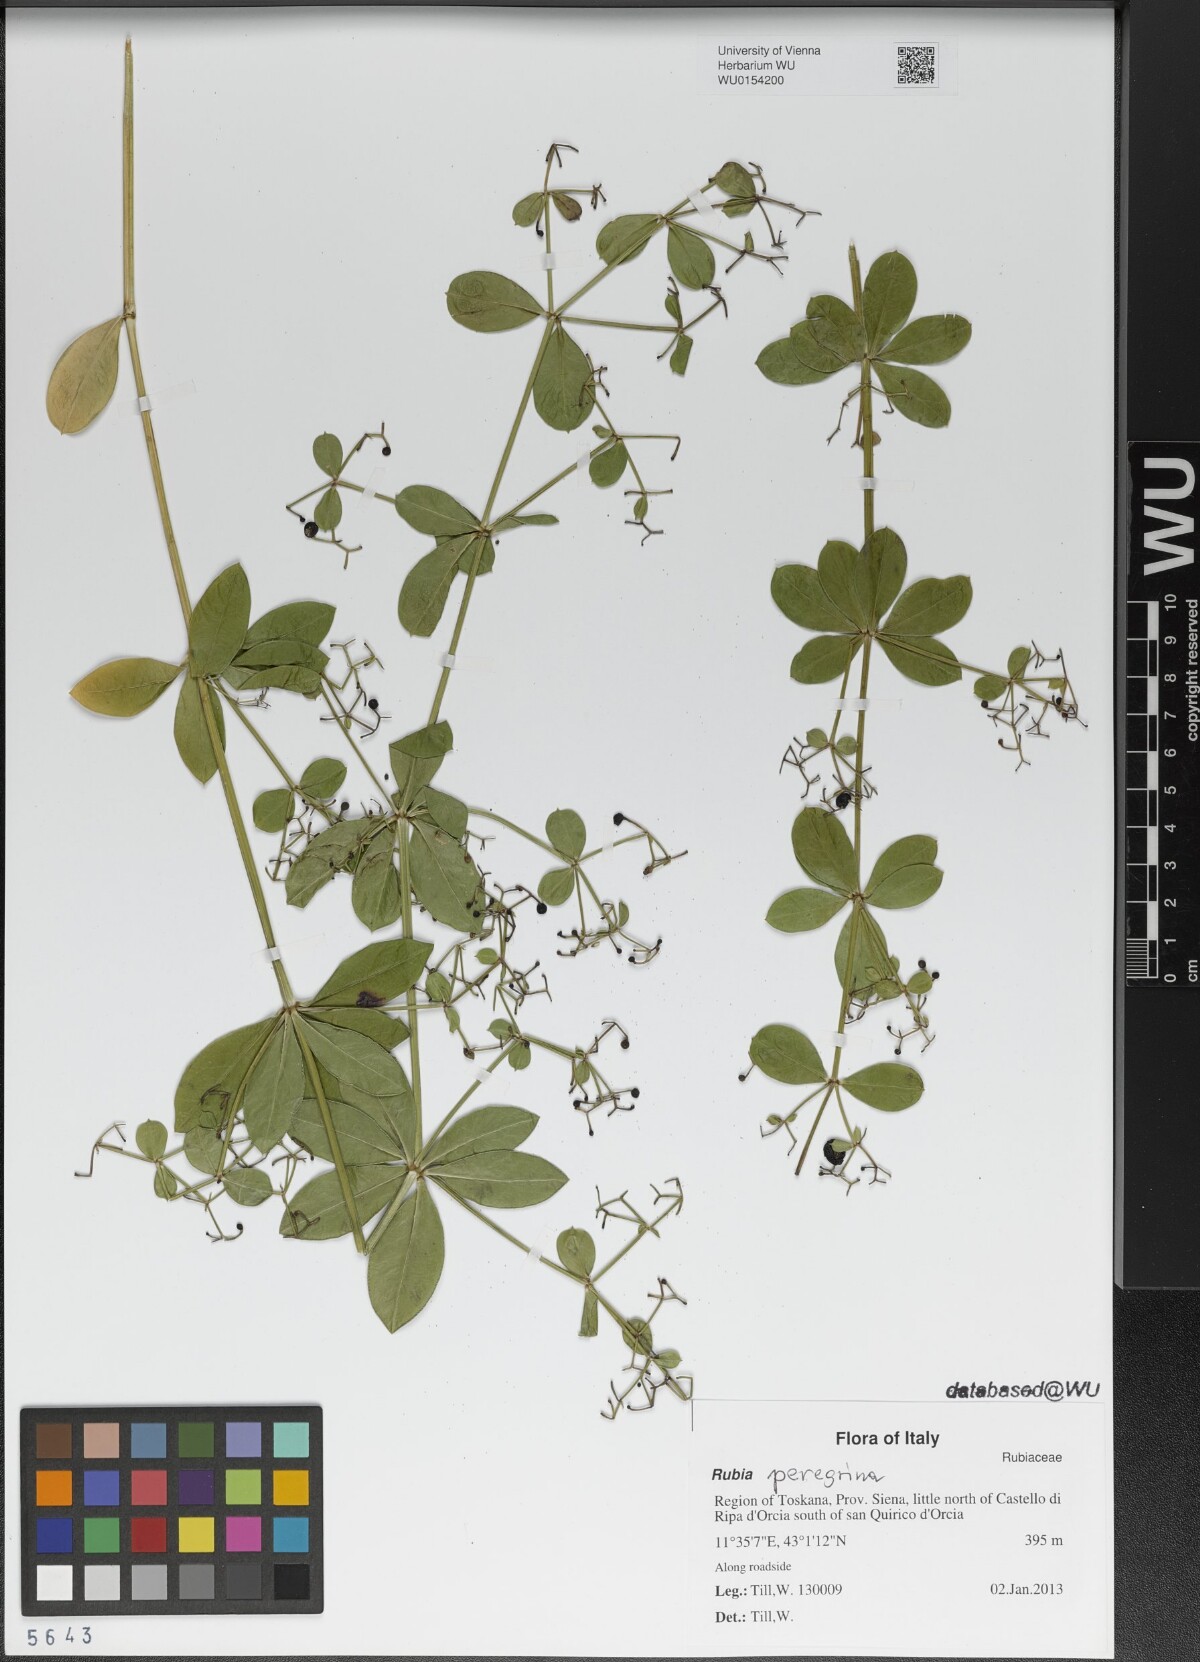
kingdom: Plantae
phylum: Tracheophyta
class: Magnoliopsida
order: Gentianales
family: Rubiaceae
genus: Rubia
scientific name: Rubia peregrina
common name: Wild madder
